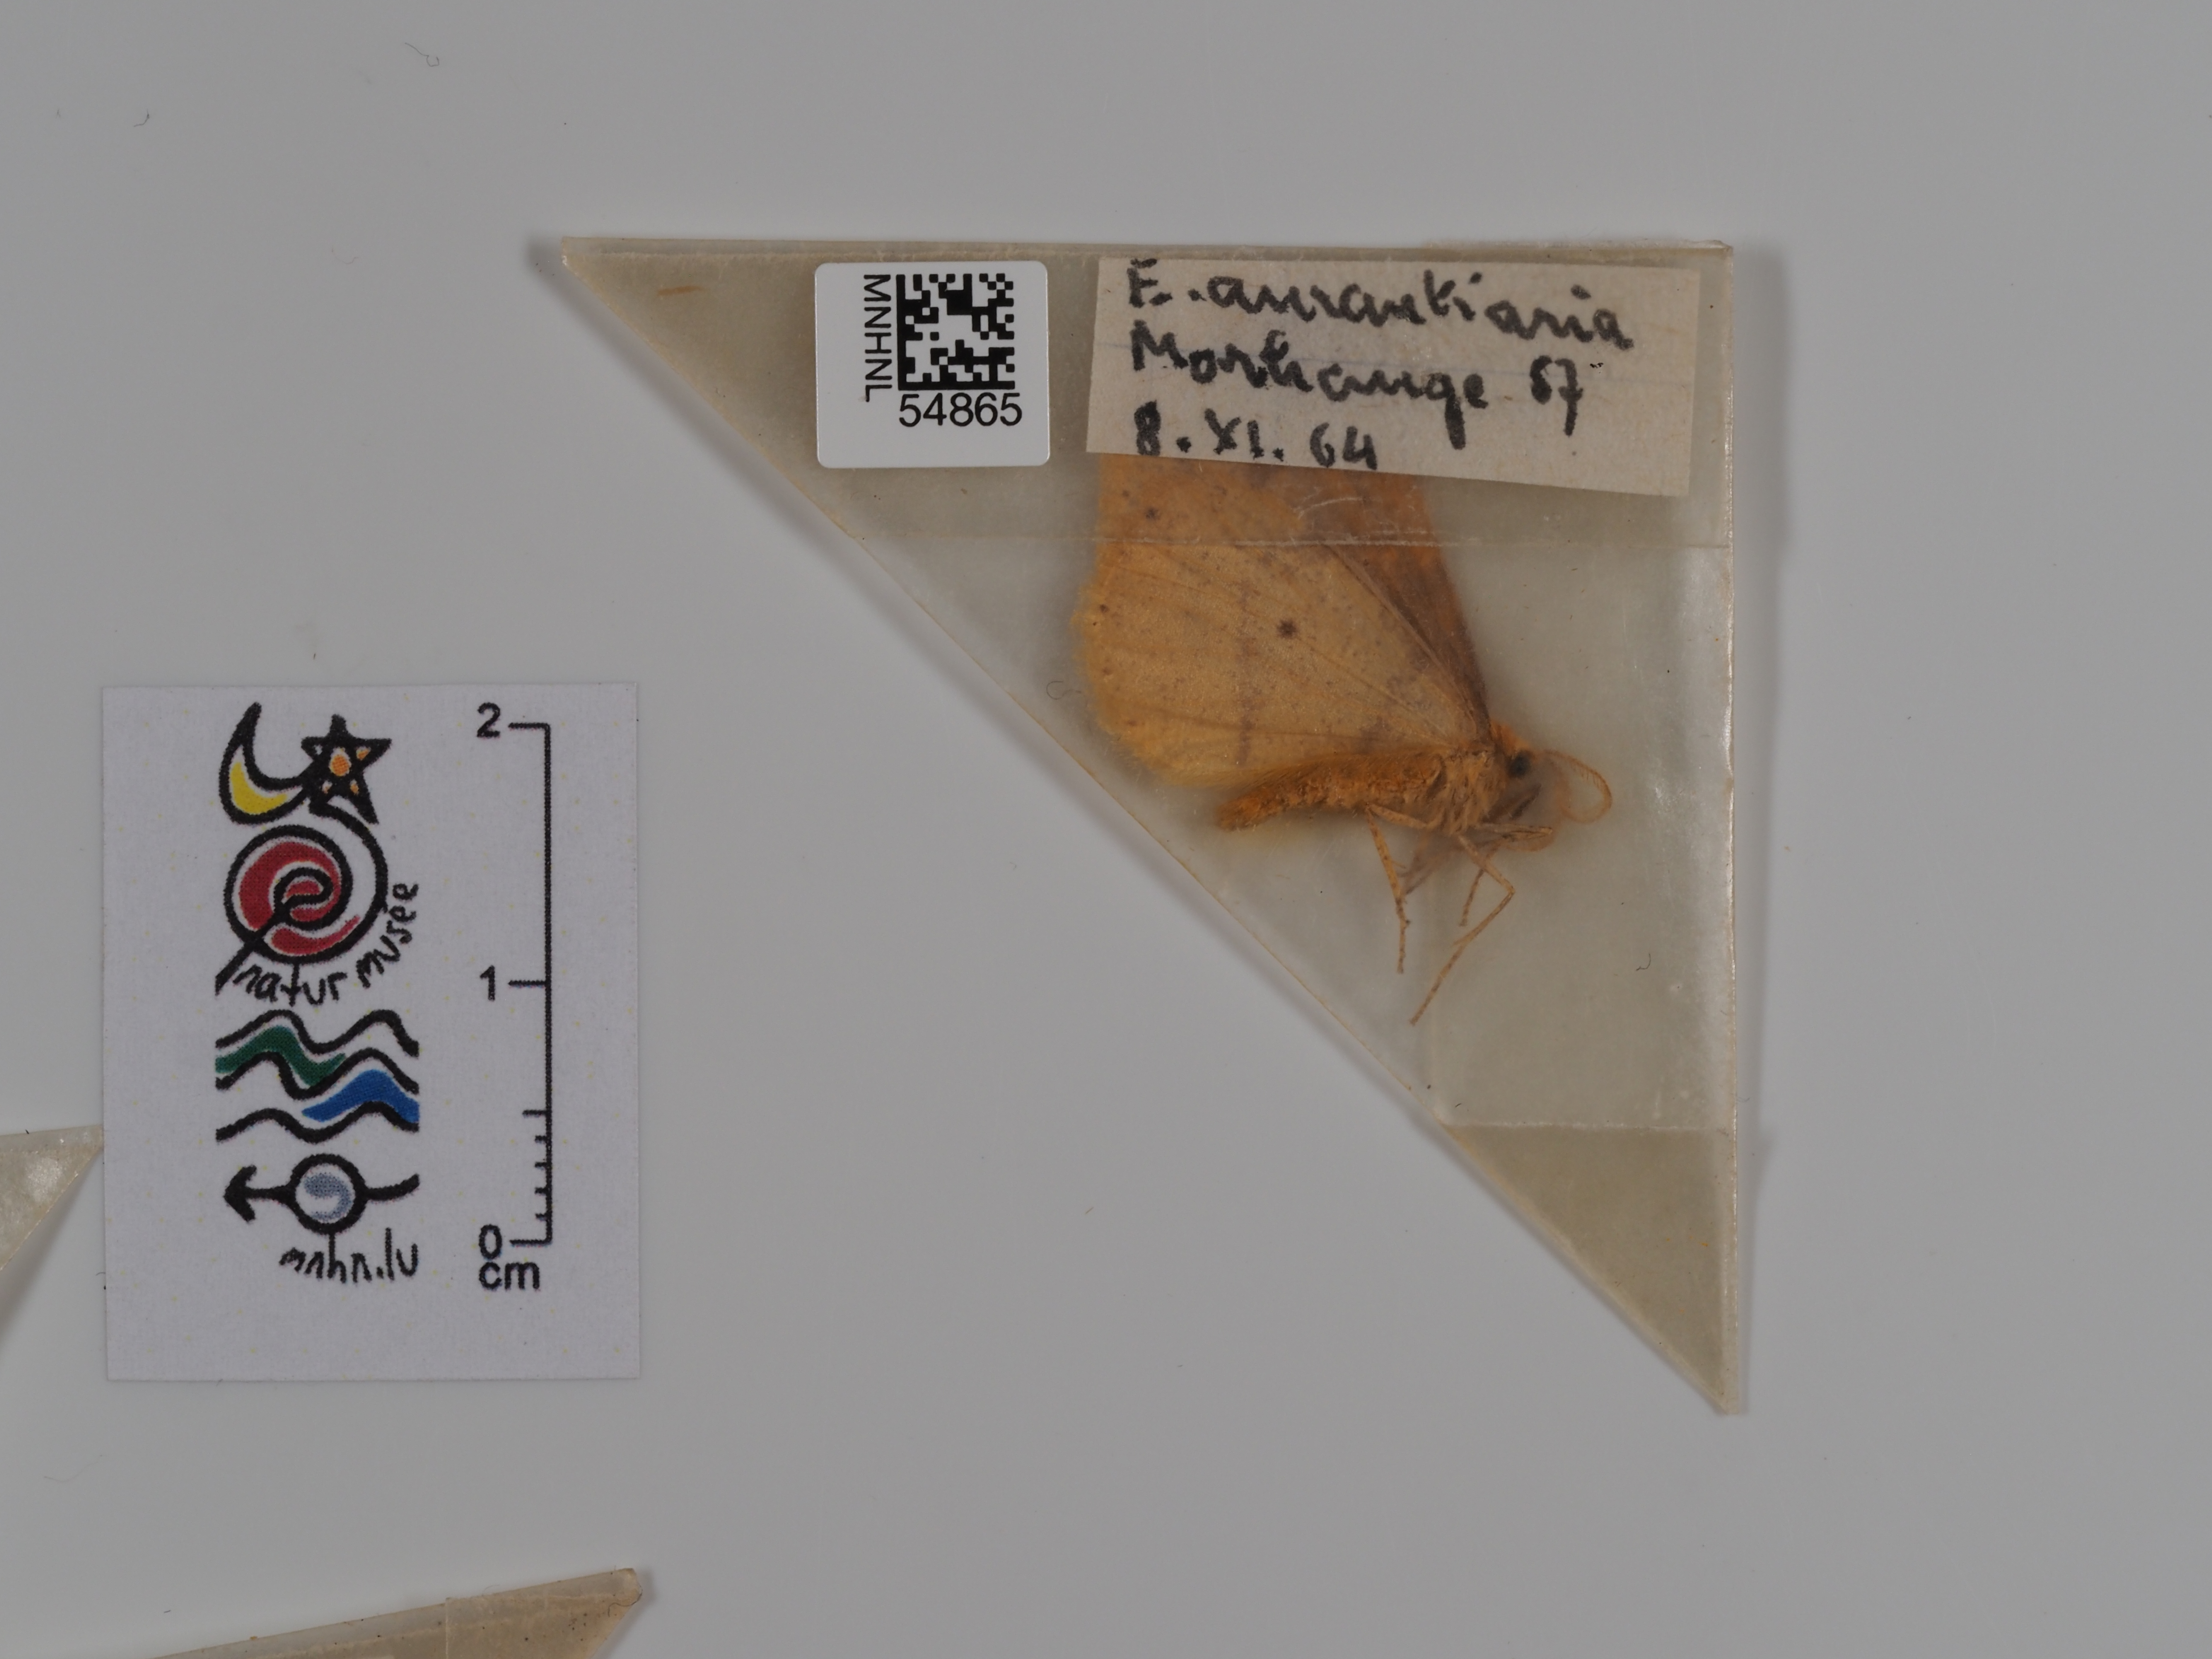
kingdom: Animalia
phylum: Arthropoda
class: Insecta
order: Lepidoptera
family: Geometridae
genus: Erannis
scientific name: Erannis
